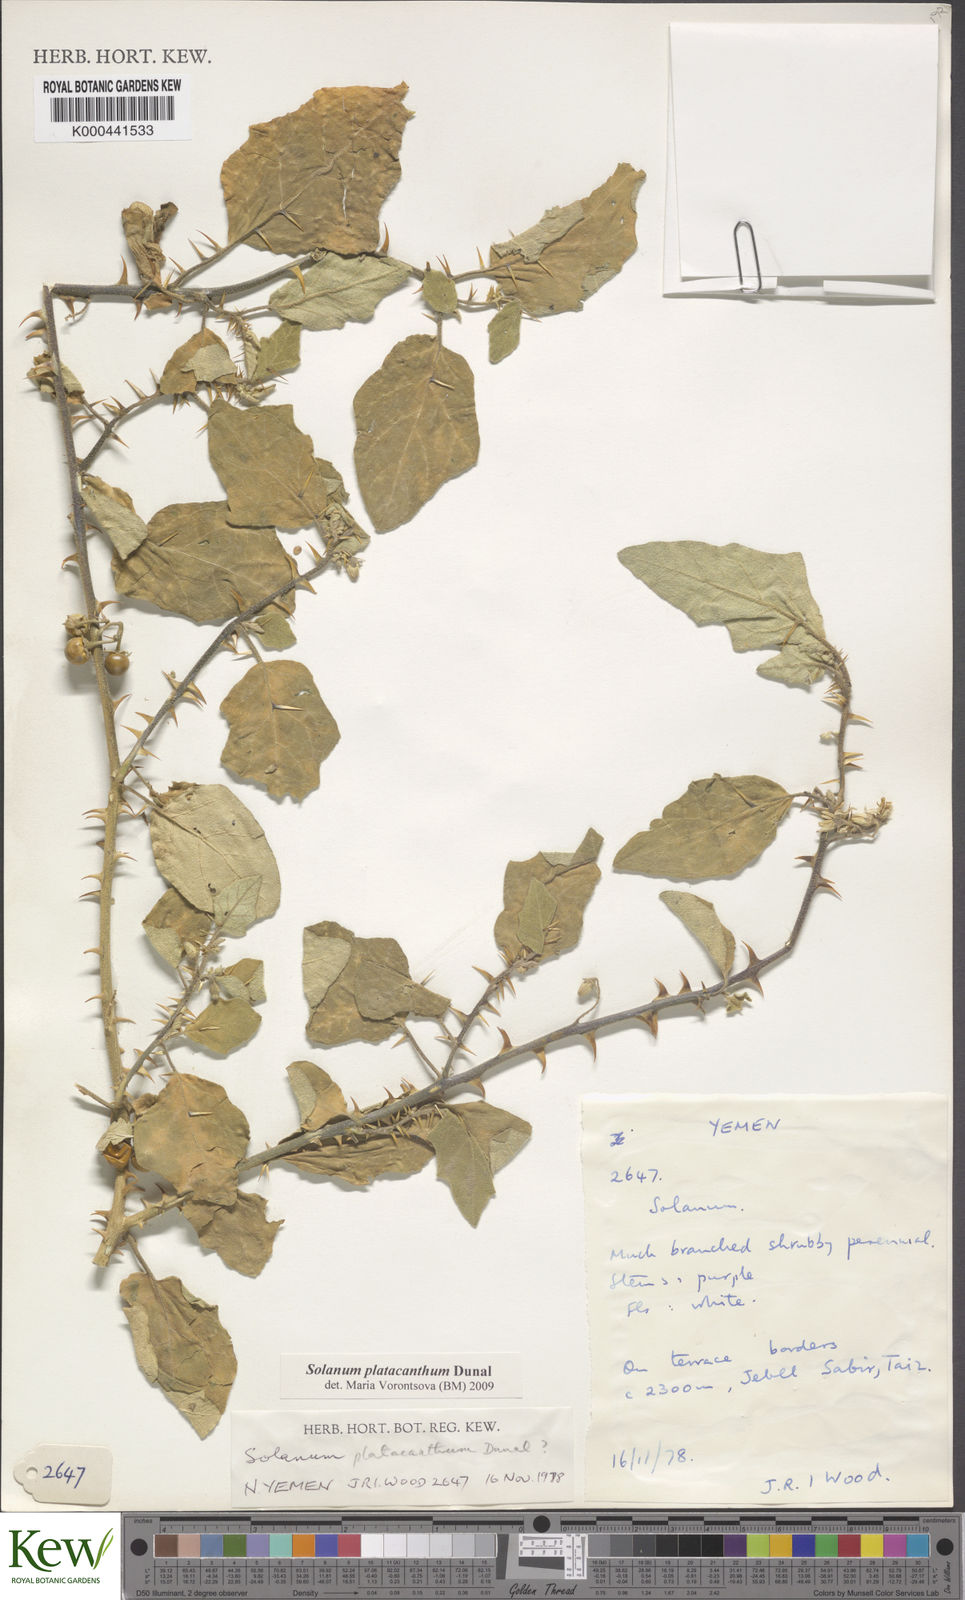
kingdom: Plantae
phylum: Tracheophyta
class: Magnoliopsida
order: Solanales
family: Solanaceae
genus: Solanum
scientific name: Solanum platacanthum
